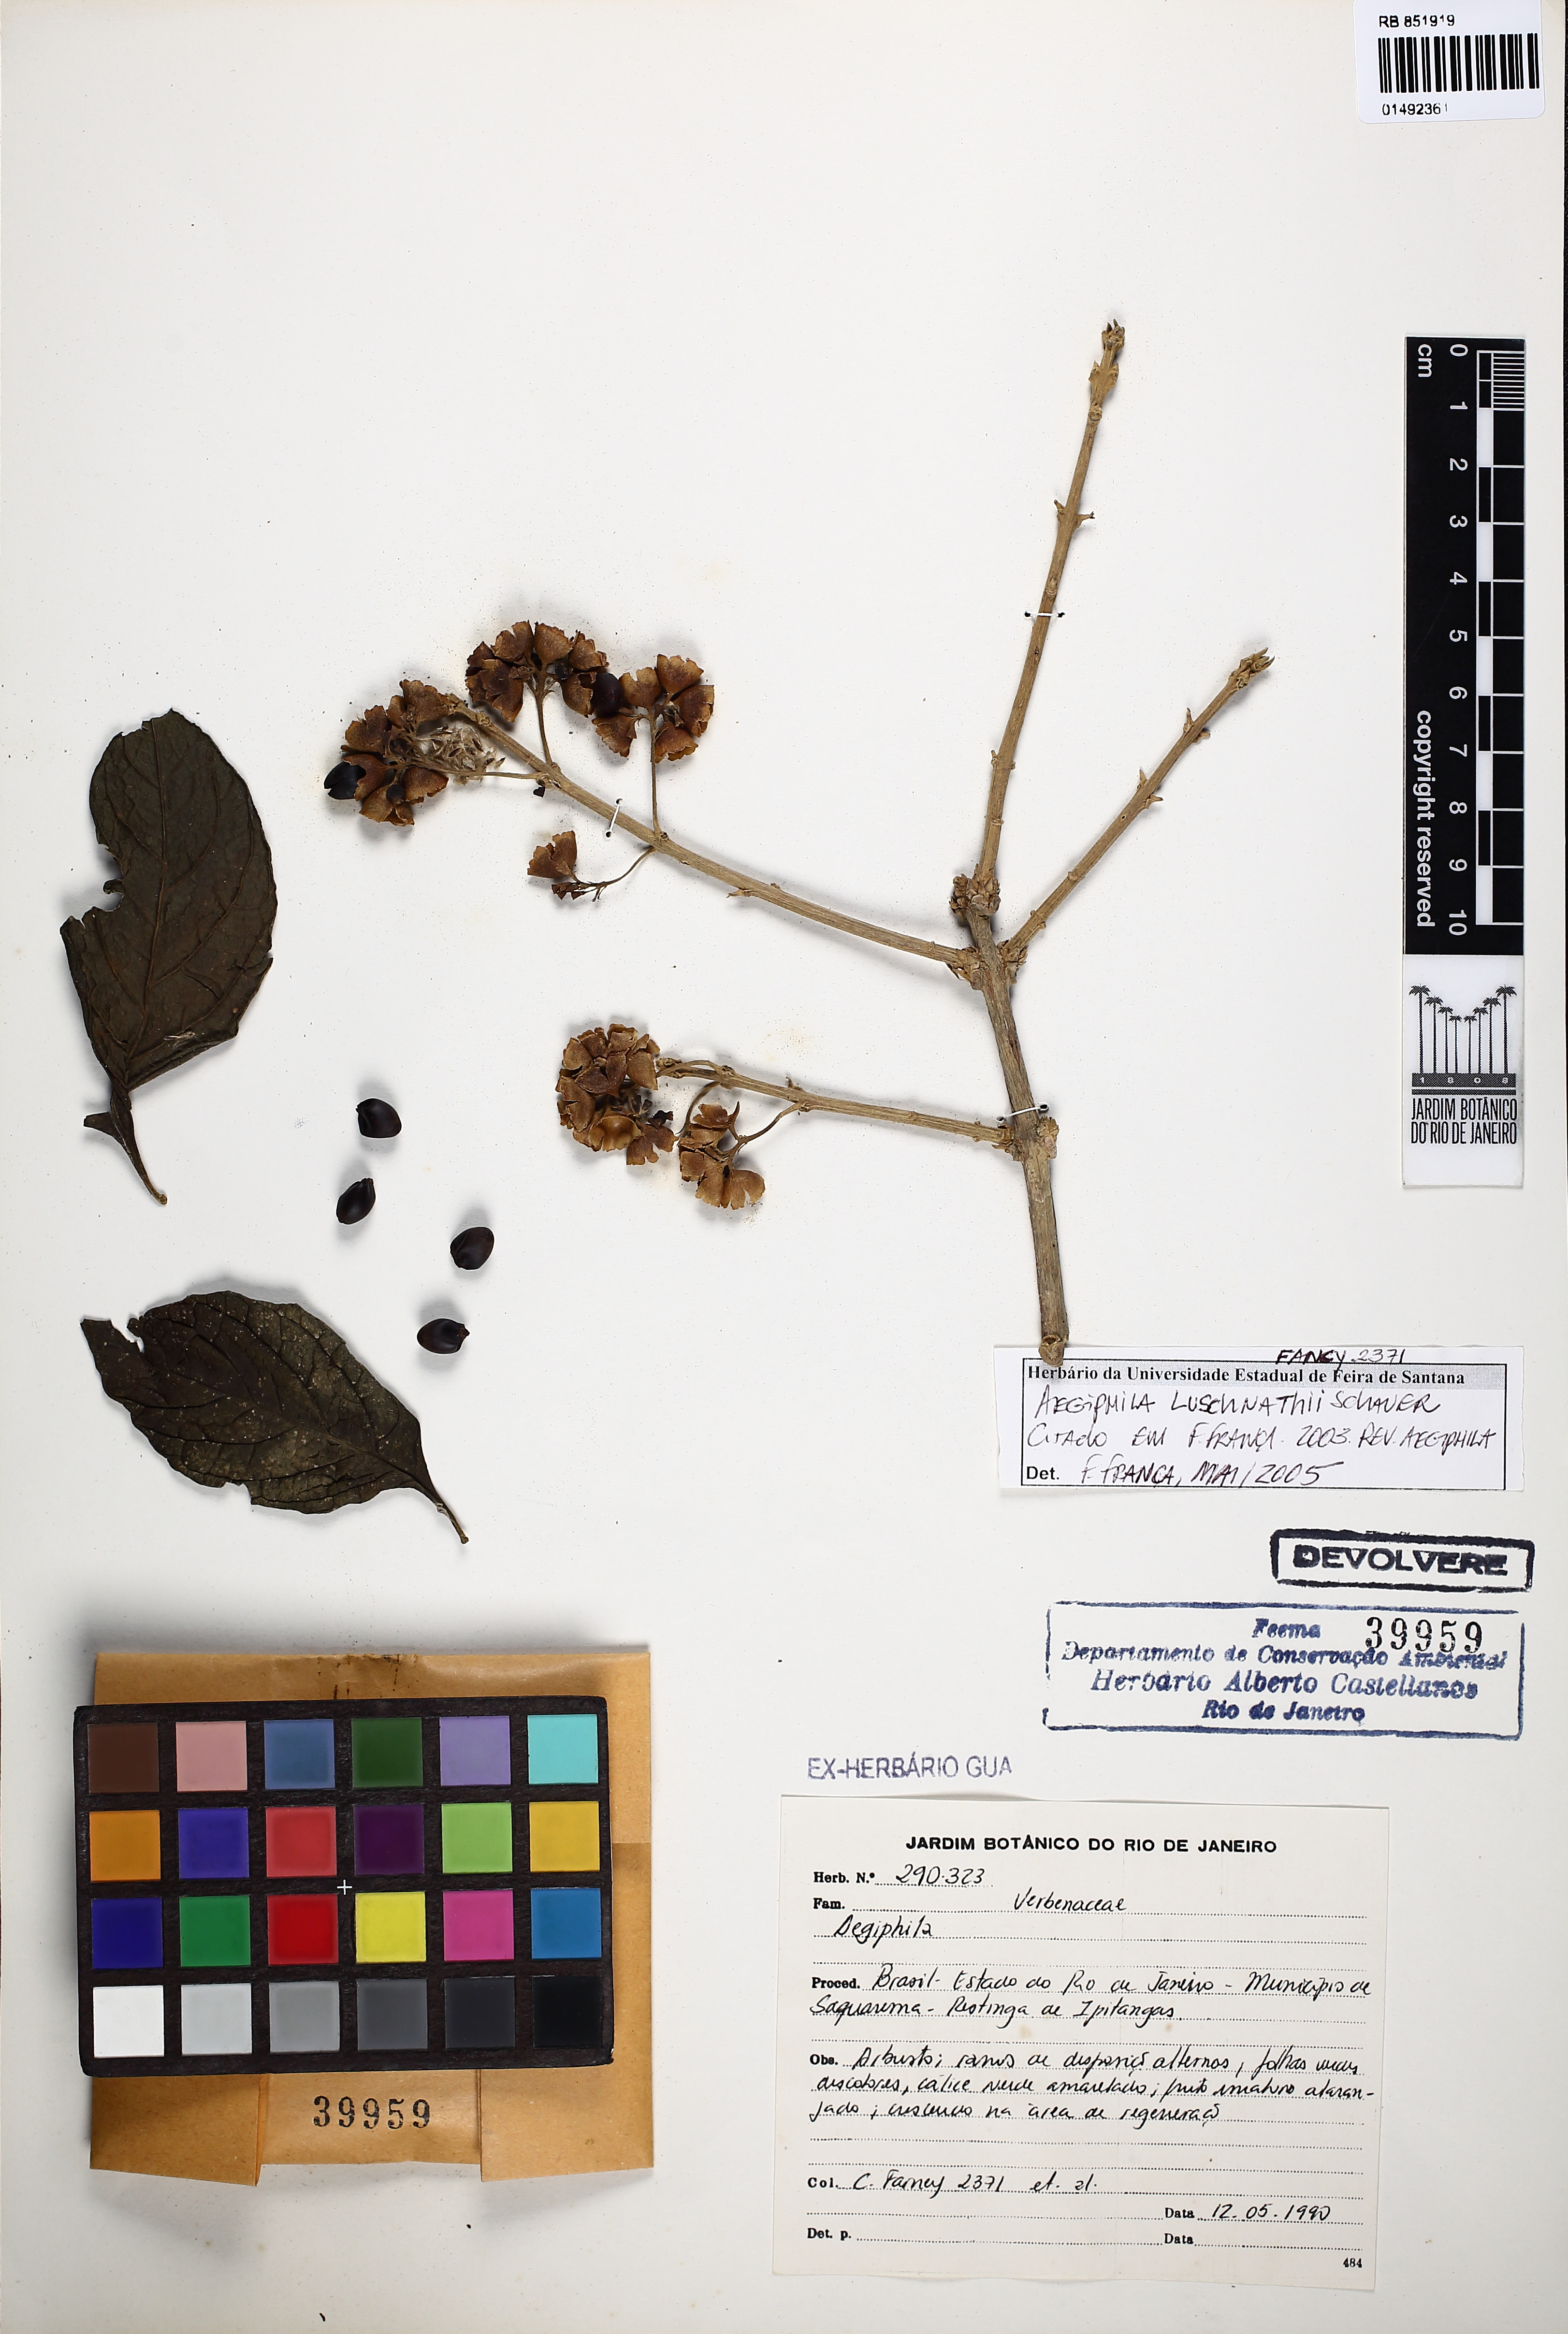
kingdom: Plantae
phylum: Tracheophyta
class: Magnoliopsida
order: Lamiales
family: Lamiaceae
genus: Aegiphila
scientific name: Aegiphila luschnathii
